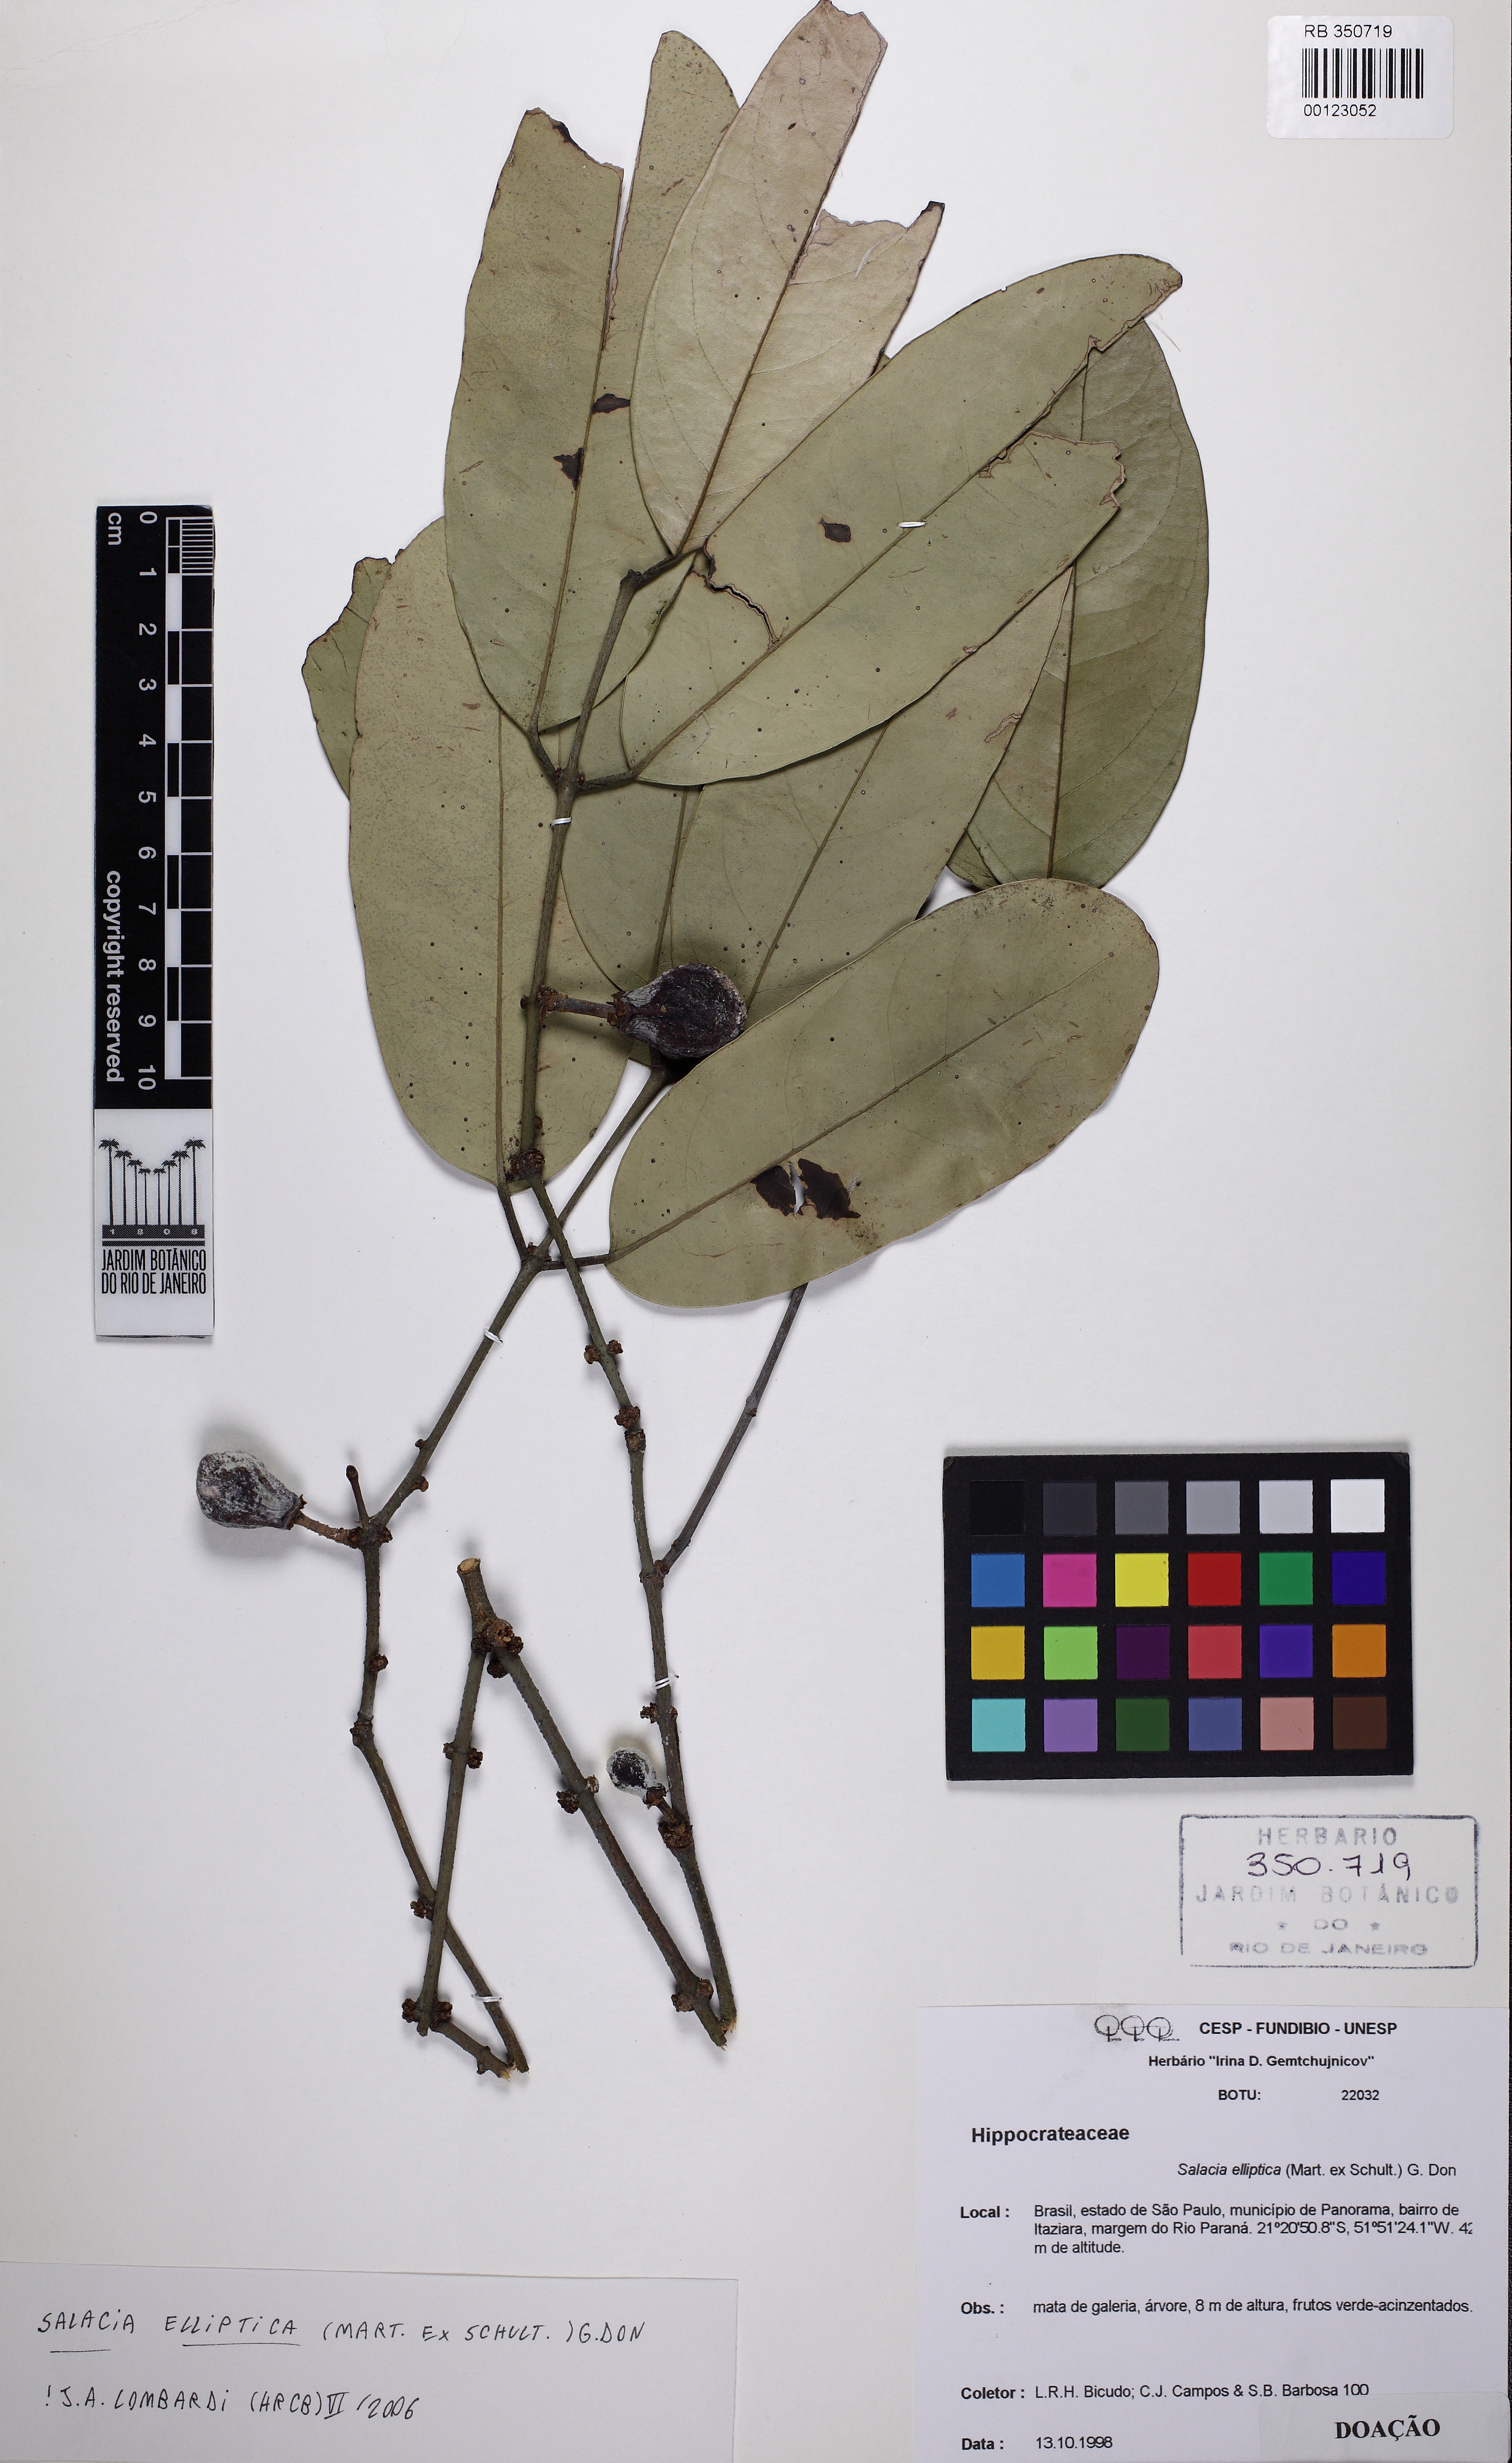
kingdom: Plantae
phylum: Tracheophyta
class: Magnoliopsida
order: Celastrales
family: Celastraceae
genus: Salacia
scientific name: Salacia elliptica
